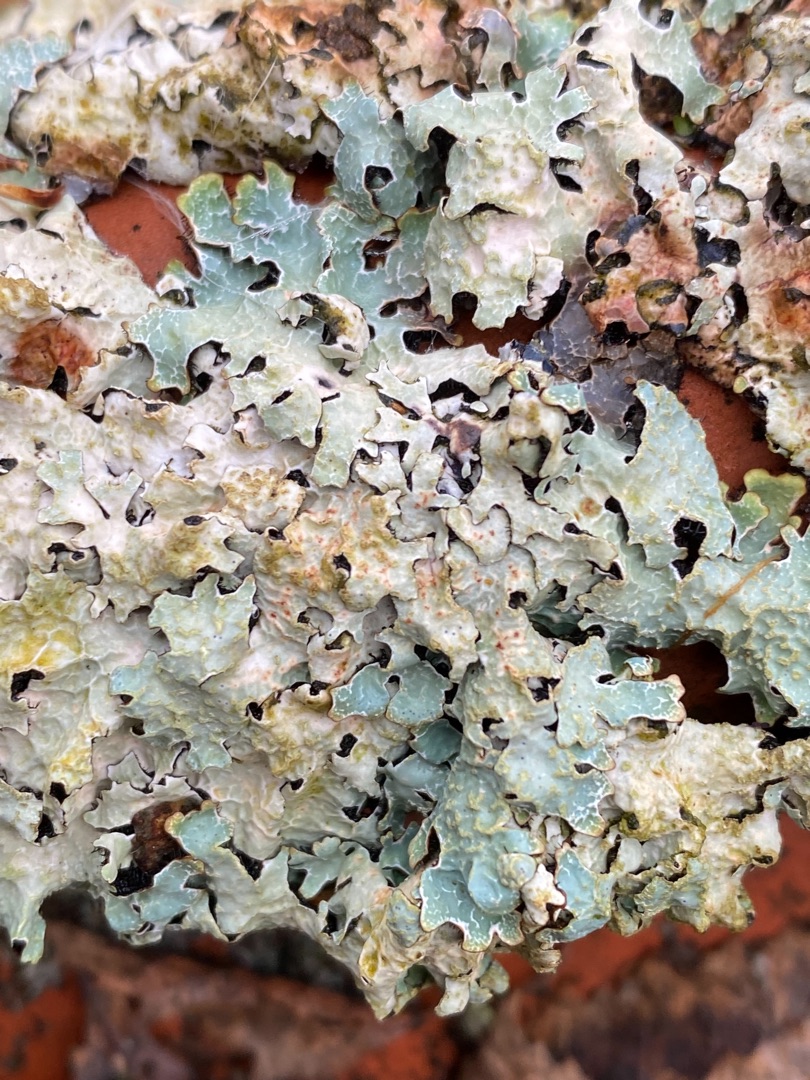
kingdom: Fungi
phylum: Ascomycota
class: Lecanoromycetes
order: Lecanorales
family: Parmeliaceae
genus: Parmelia
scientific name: Parmelia sulcata
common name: Rynket skållav
